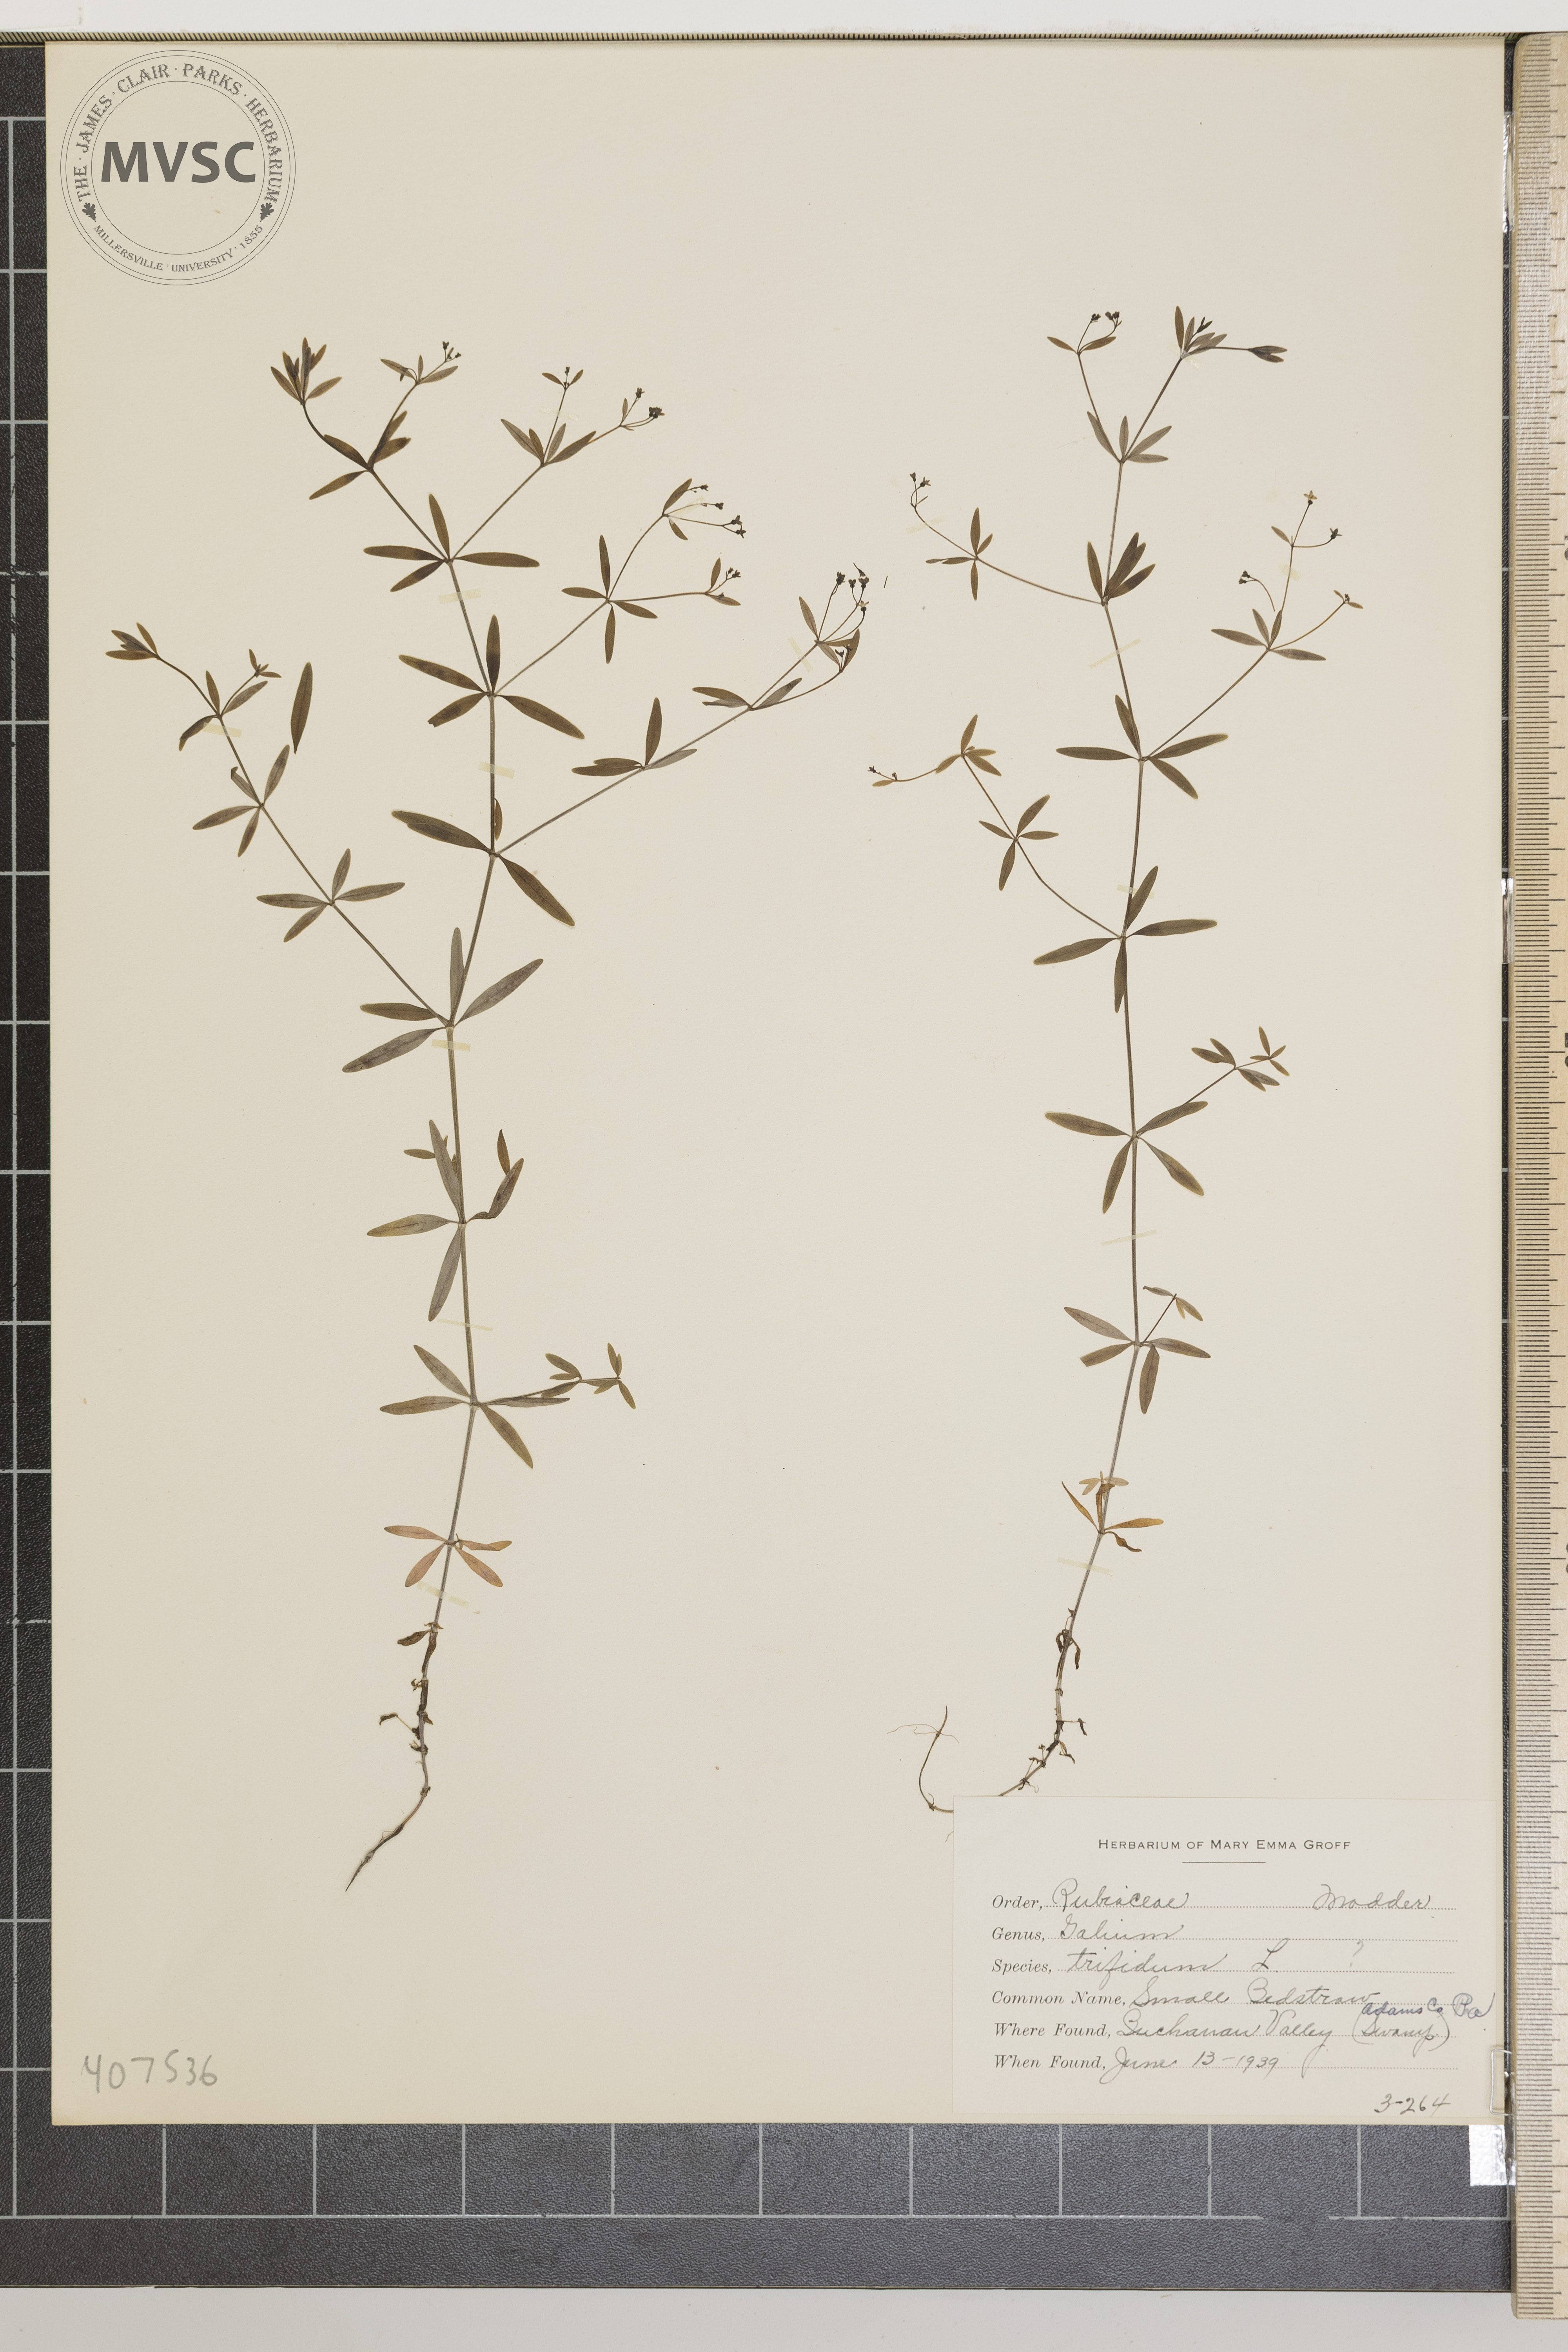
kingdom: Plantae
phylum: Tracheophyta
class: Magnoliopsida
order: Gentianales
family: Rubiaceae
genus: Galium
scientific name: Galium trifidum
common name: Small Bedstraw
